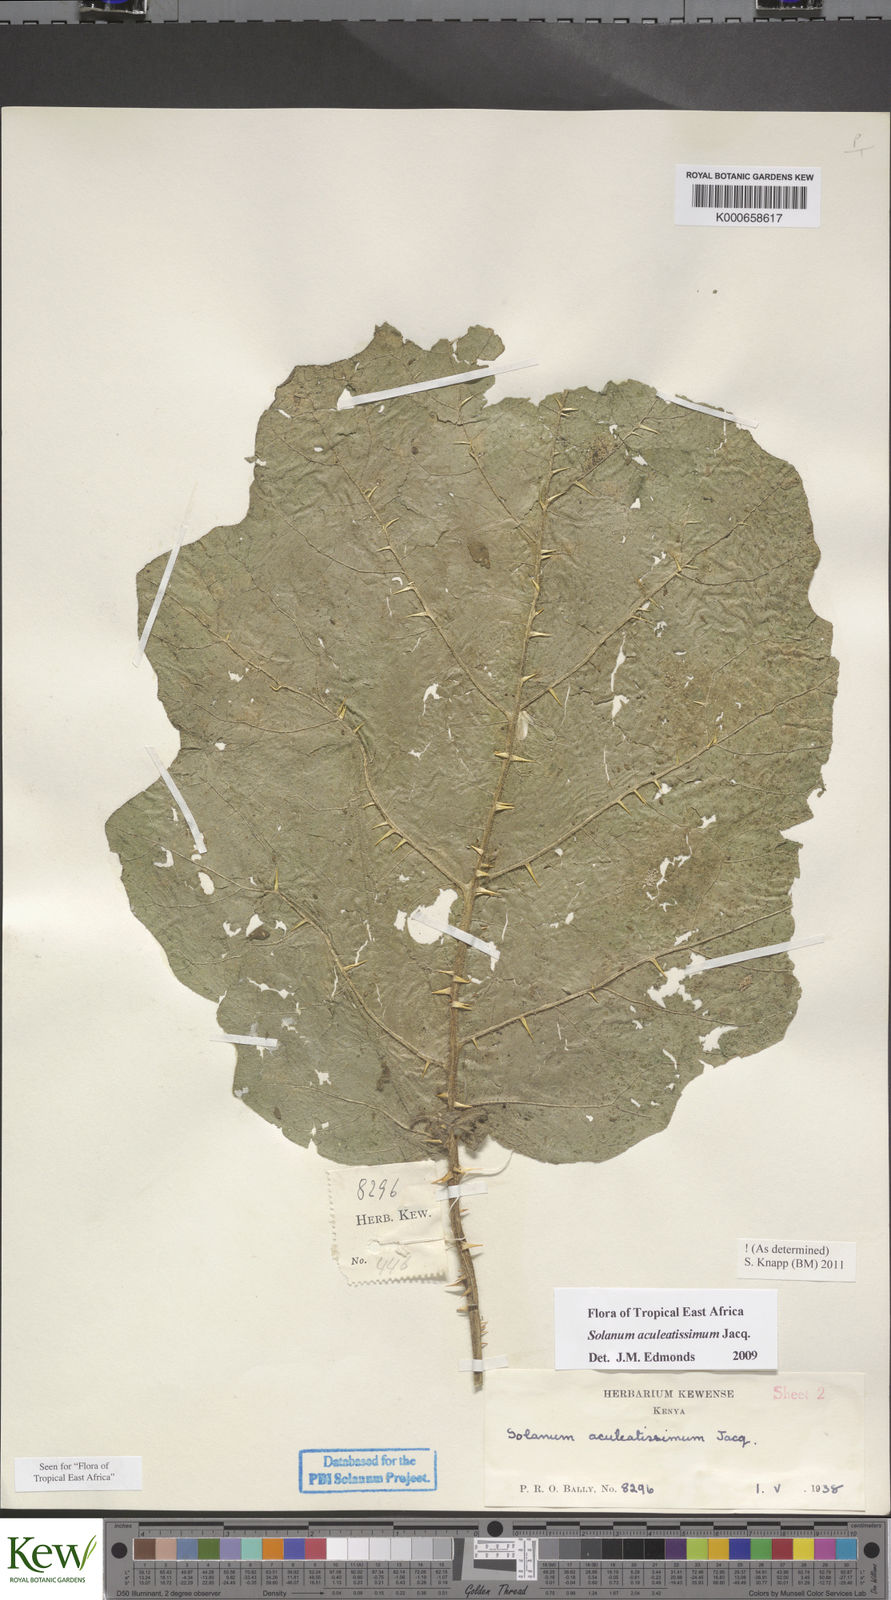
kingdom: Plantae
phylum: Tracheophyta
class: Magnoliopsida
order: Solanales
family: Solanaceae
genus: Solanum
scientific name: Solanum aculeatissimum
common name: Dutch eggplant
